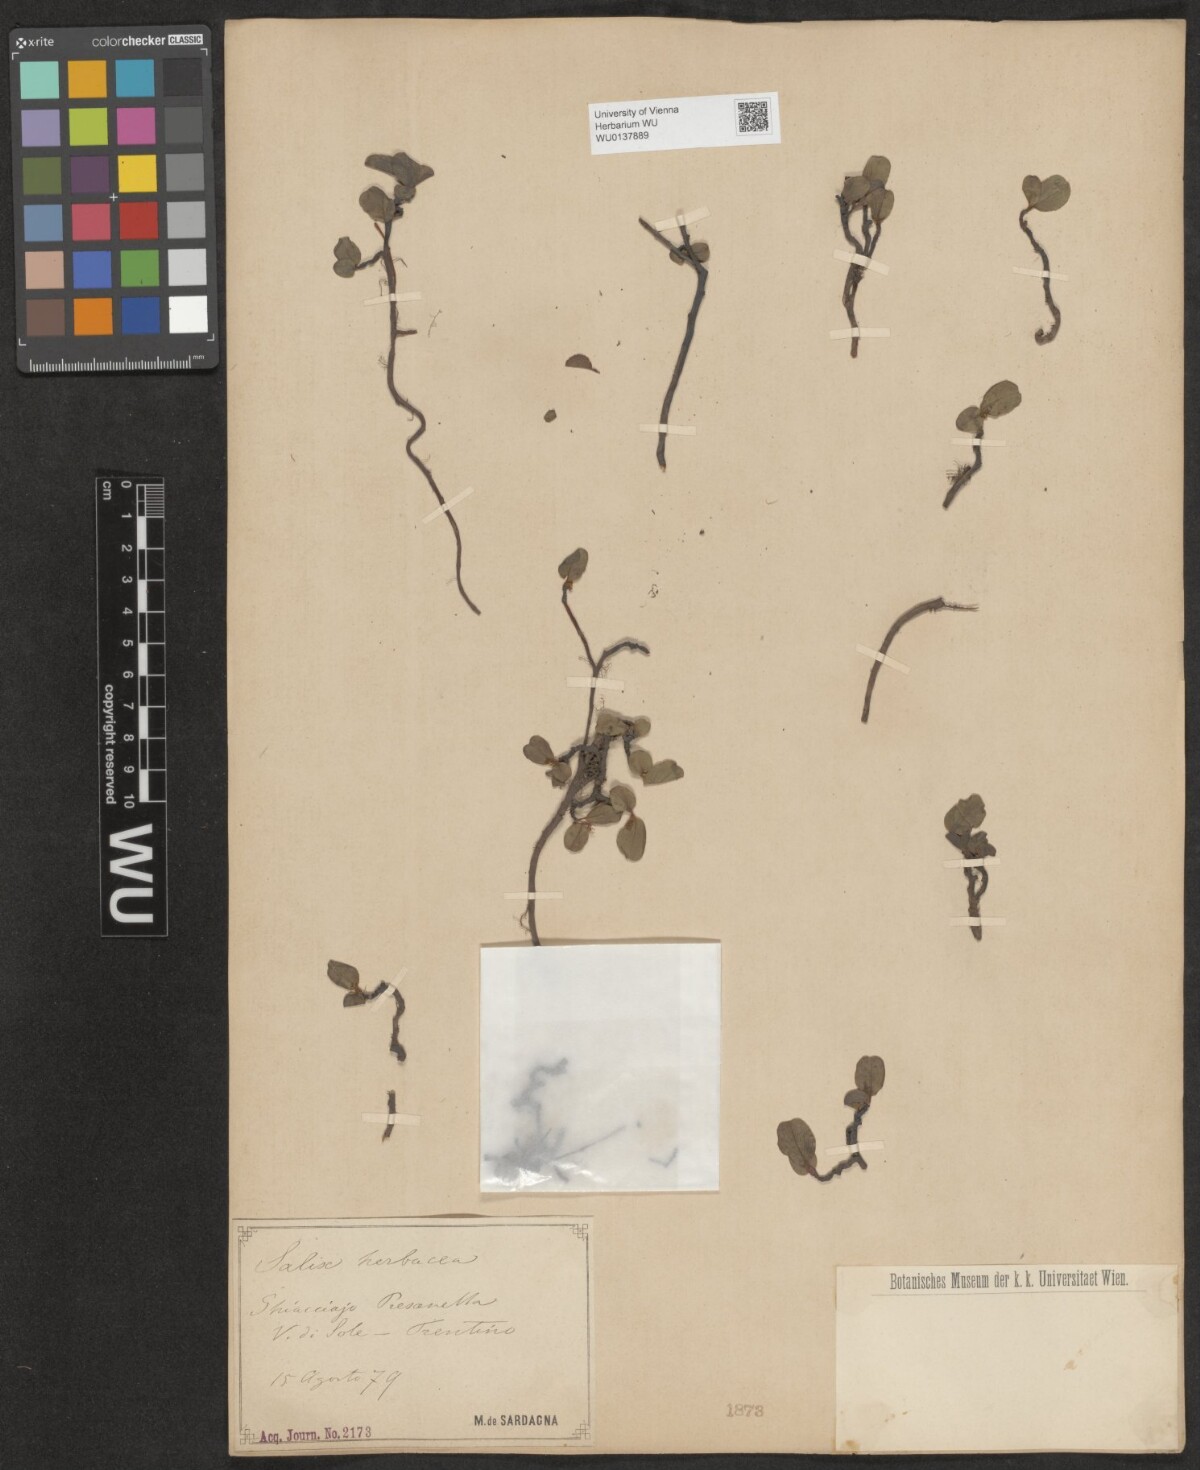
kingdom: Plantae
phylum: Tracheophyta
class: Magnoliopsida
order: Malpighiales
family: Salicaceae
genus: Salix
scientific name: Salix herbacea
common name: Dwarf willow
